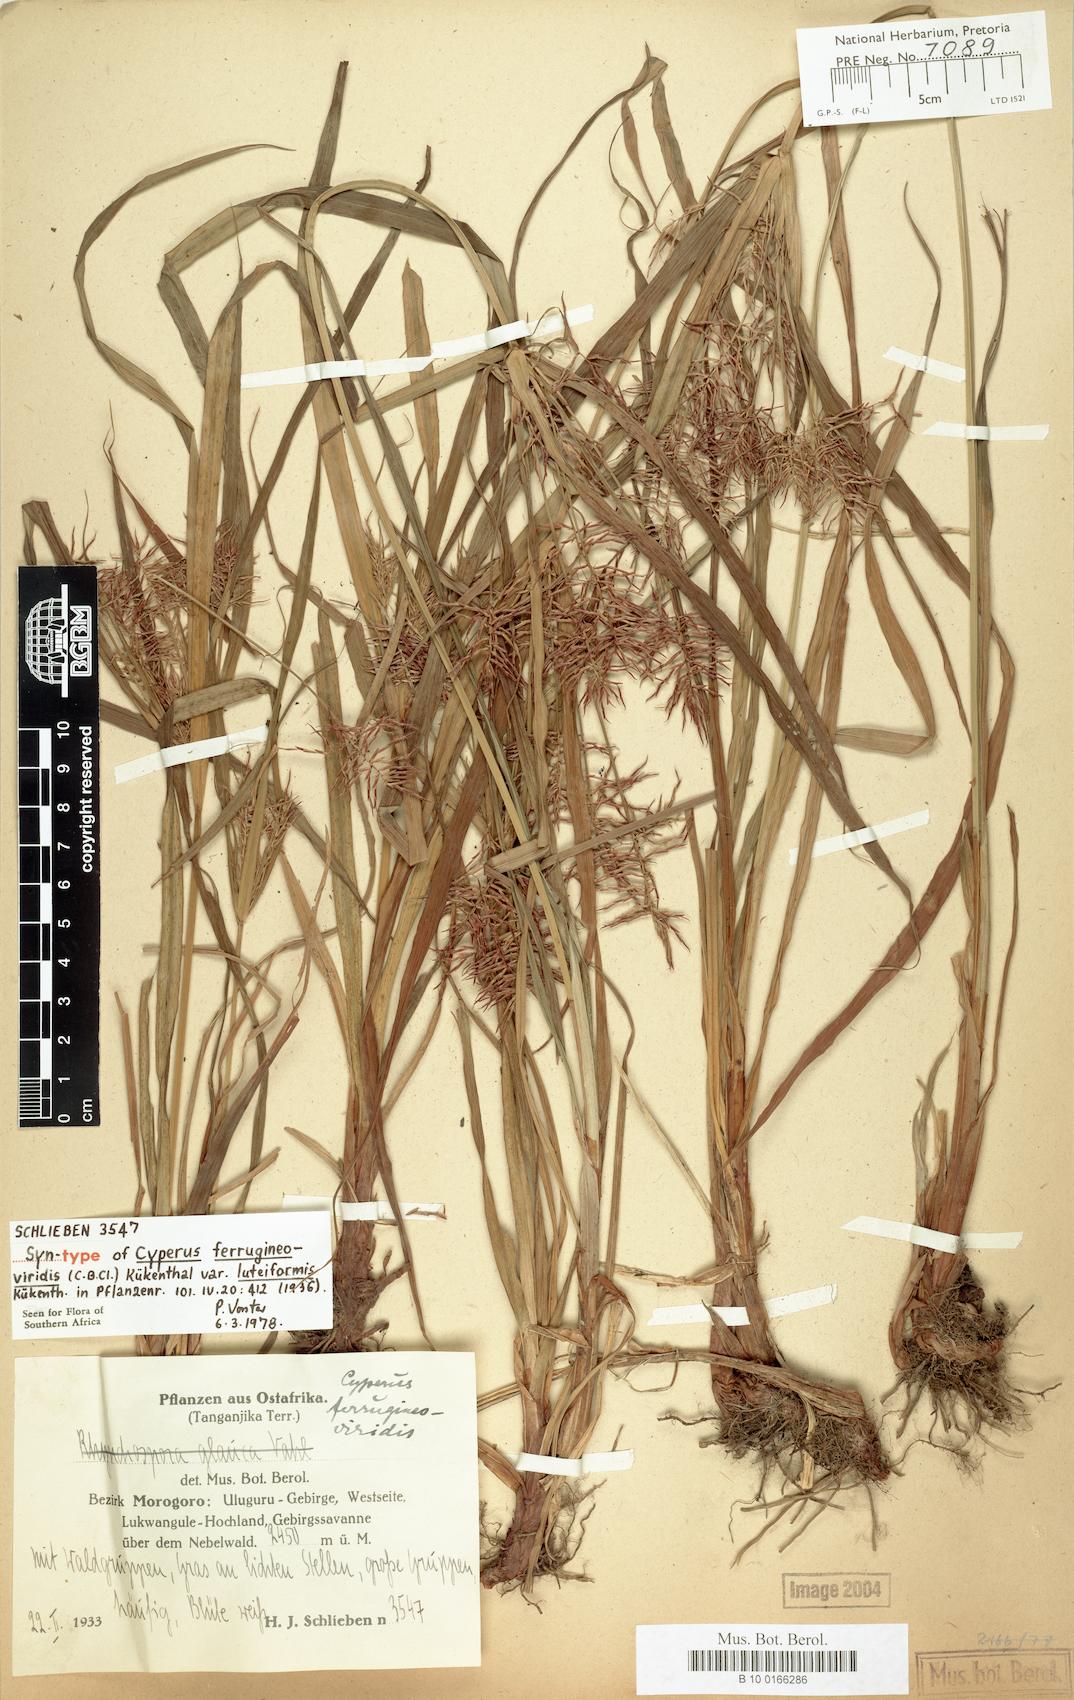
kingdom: Plantae
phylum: Tracheophyta
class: Liliopsida
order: Poales
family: Cyperaceae
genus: Cyperus
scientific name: Cyperus ferrugineoviridis
